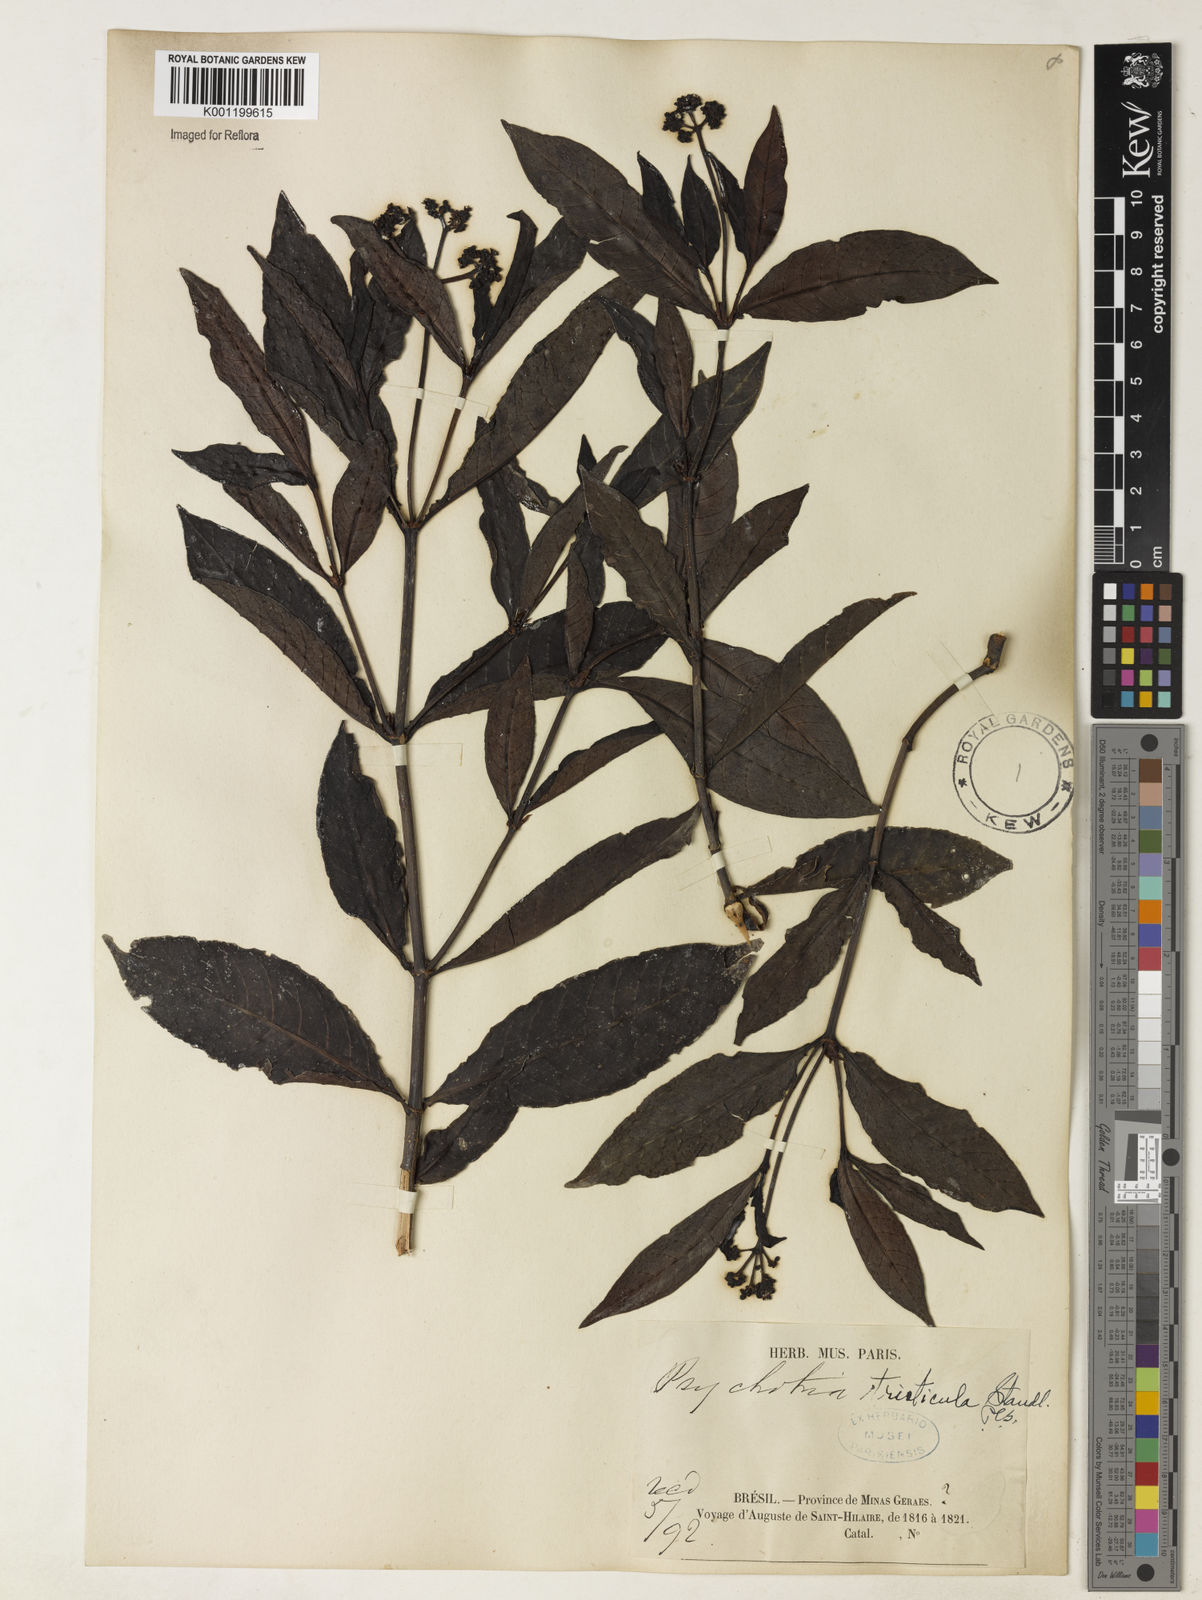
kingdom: Plantae
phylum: Tracheophyta
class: Magnoliopsida
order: Gentianales
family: Rubiaceae
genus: Psychotria
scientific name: Psychotria carthagenensis
